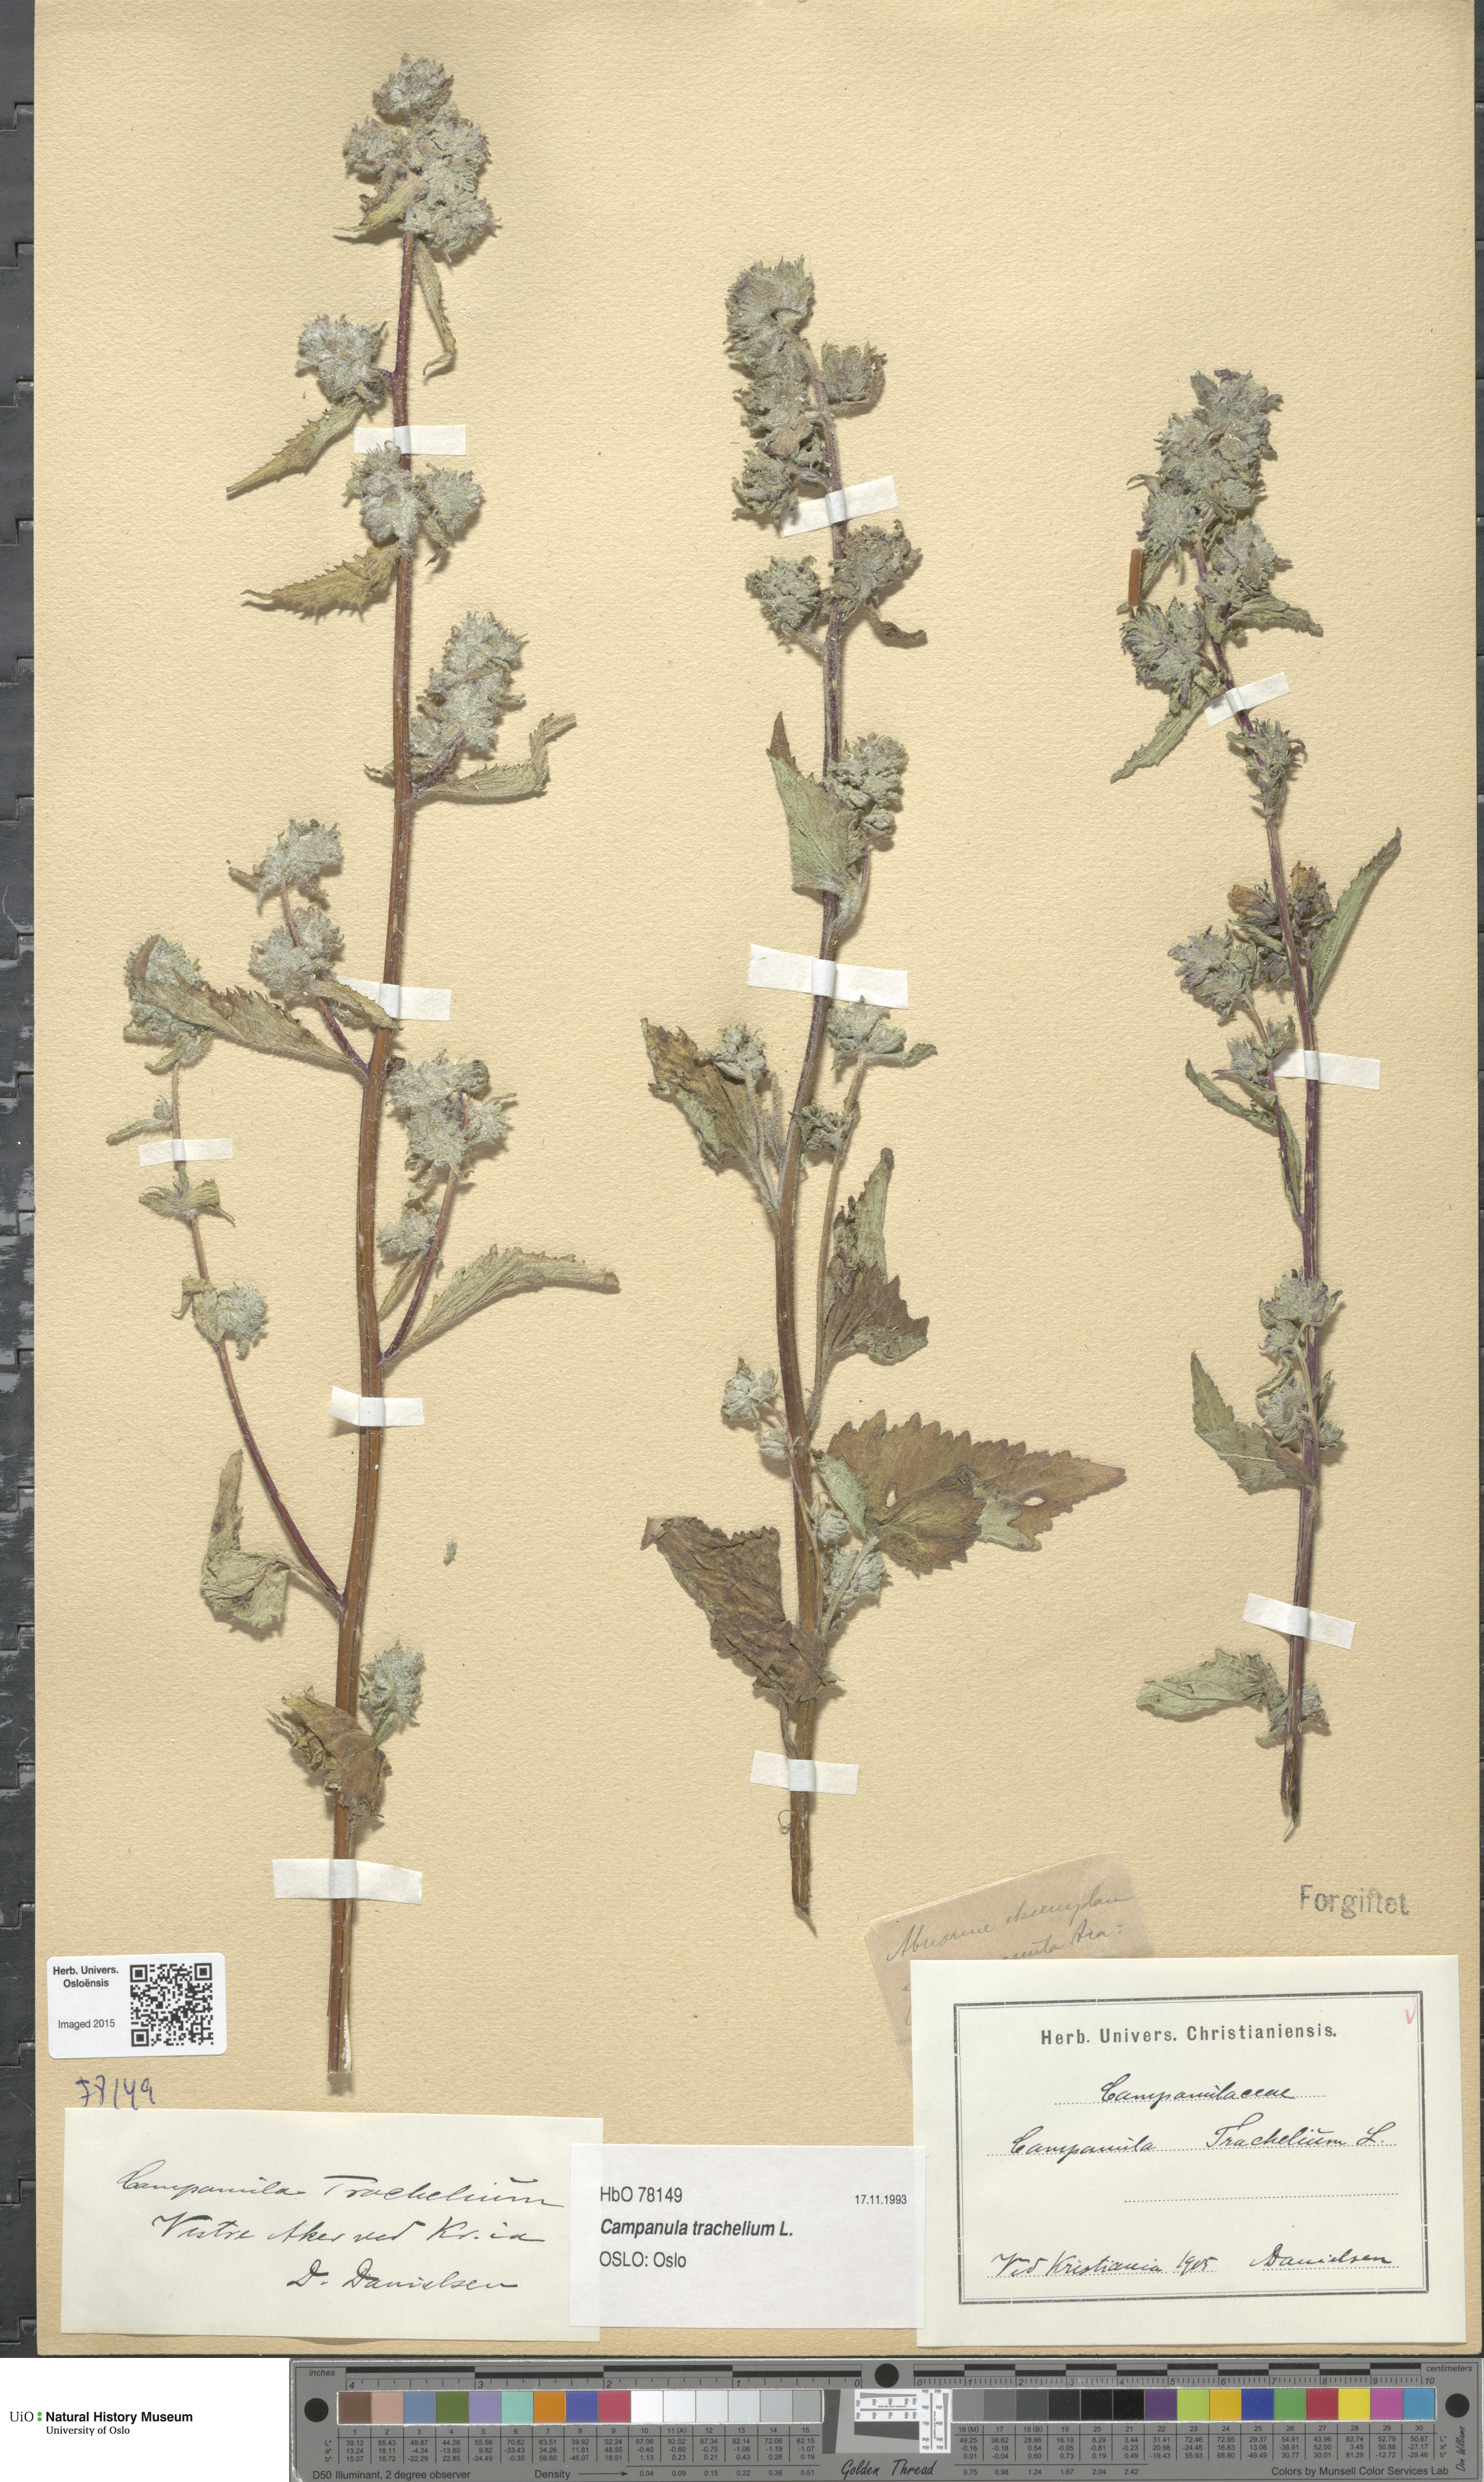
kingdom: Plantae
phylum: Tracheophyta
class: Magnoliopsida
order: Asterales
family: Campanulaceae
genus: Campanula
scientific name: Campanula trachelium
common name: Nettle-leaved bellflower
